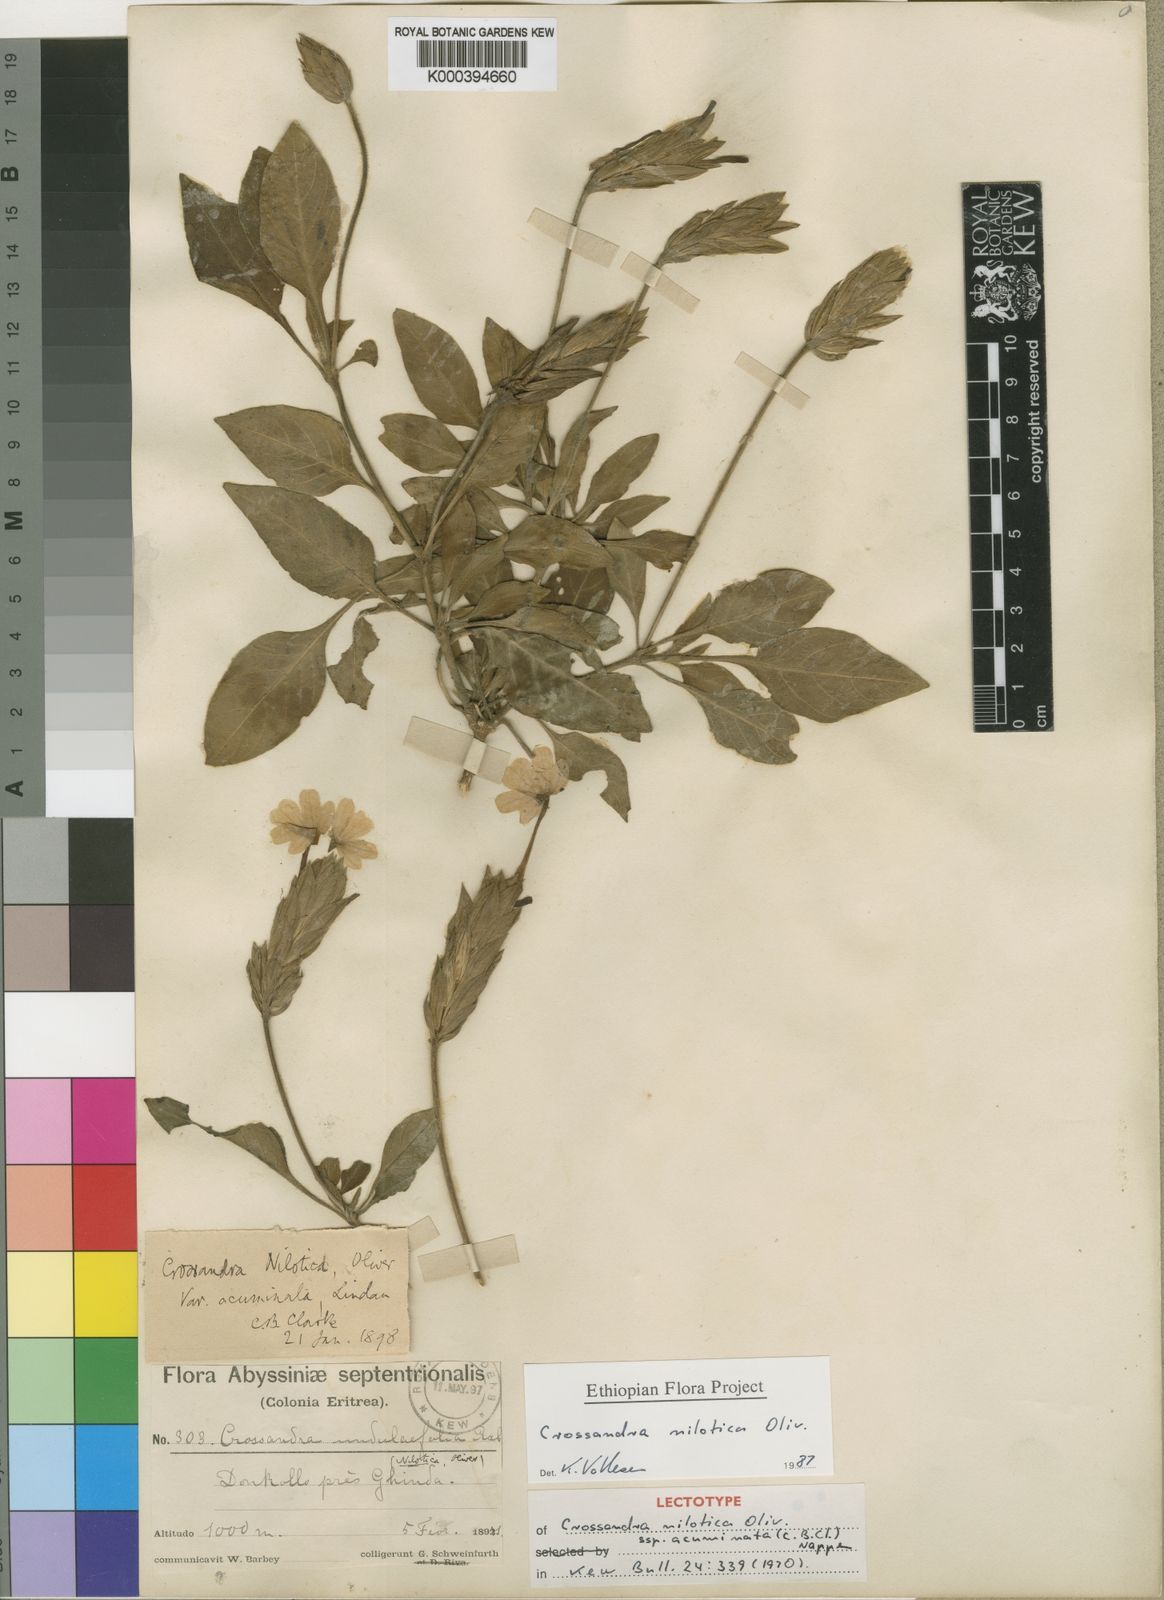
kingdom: Plantae
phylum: Tracheophyta
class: Magnoliopsida
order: Lamiales
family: Acanthaceae
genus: Crossandra
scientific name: Crossandra nilotica
